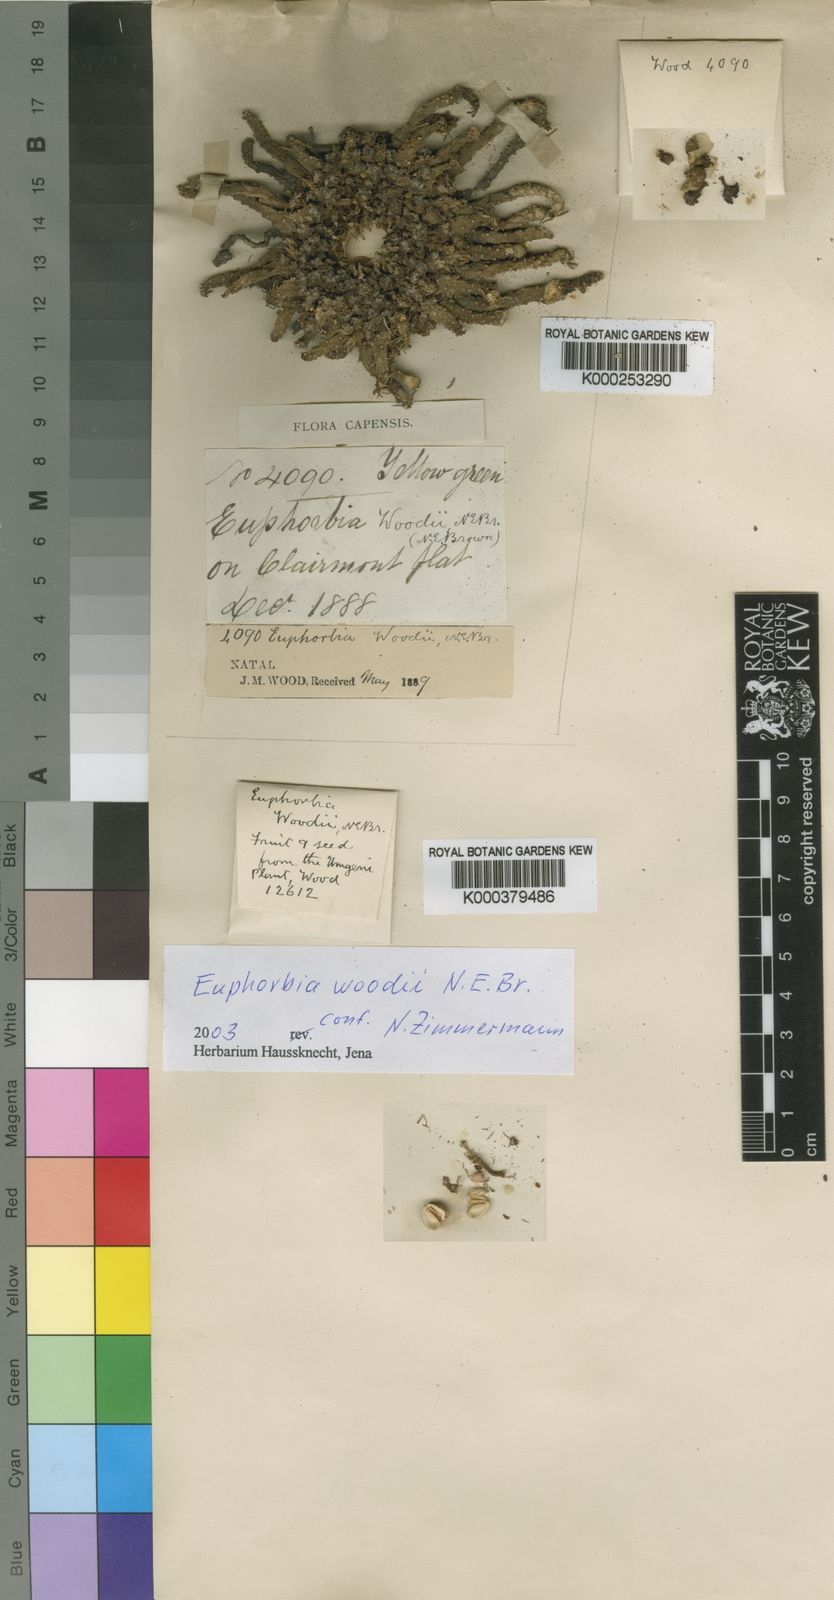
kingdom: Plantae
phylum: Tracheophyta
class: Magnoliopsida
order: Malpighiales
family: Euphorbiaceae
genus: Euphorbia
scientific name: Euphorbia flanaganii
